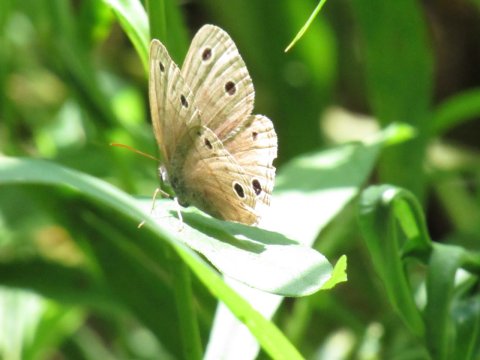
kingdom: Animalia
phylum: Arthropoda
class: Insecta
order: Lepidoptera
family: Nymphalidae
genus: Euptychia
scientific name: Euptychia cymela
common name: Little Wood Satyr
